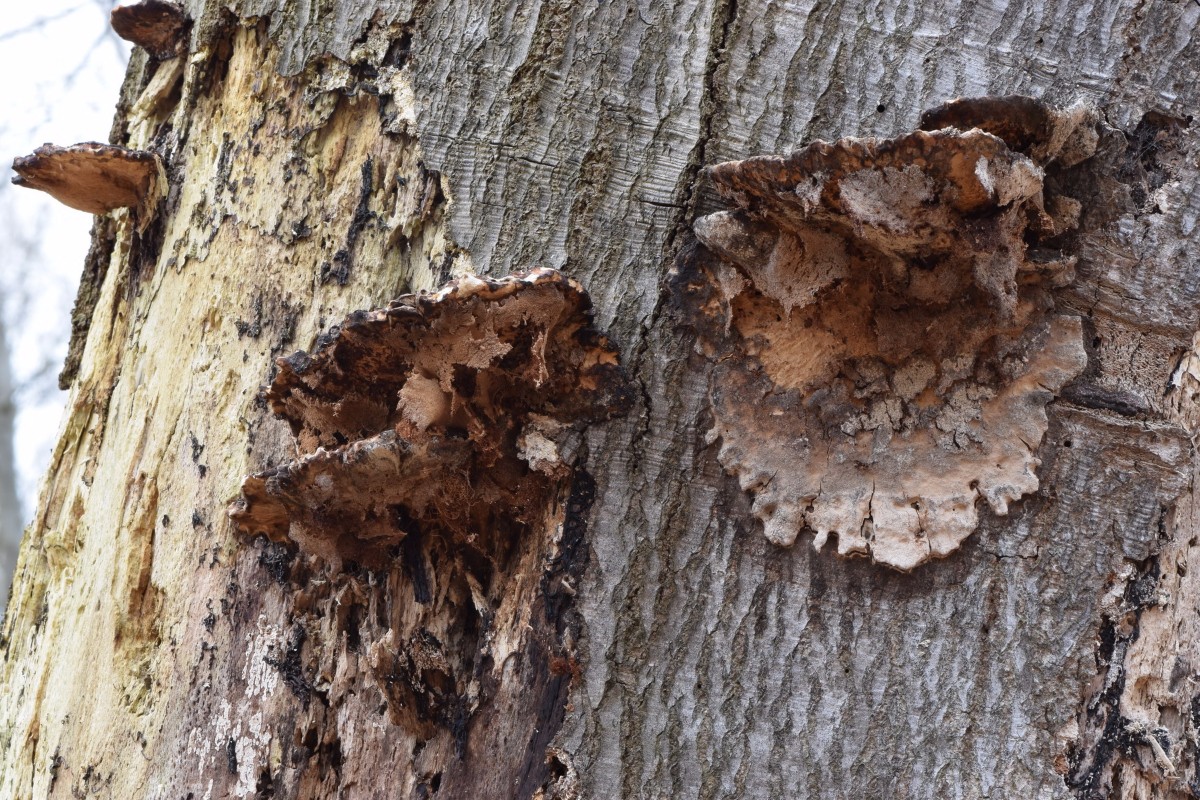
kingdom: Fungi
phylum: Basidiomycota
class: Agaricomycetes
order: Polyporales
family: Ischnodermataceae
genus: Ischnoderma
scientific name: Ischnoderma resinosum
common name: løv-tjæreporesvamp
